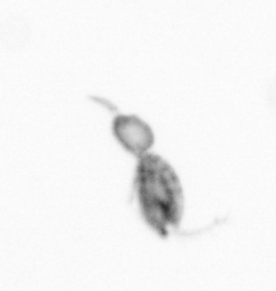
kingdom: Animalia
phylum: Arthropoda
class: Copepoda
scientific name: Copepoda
